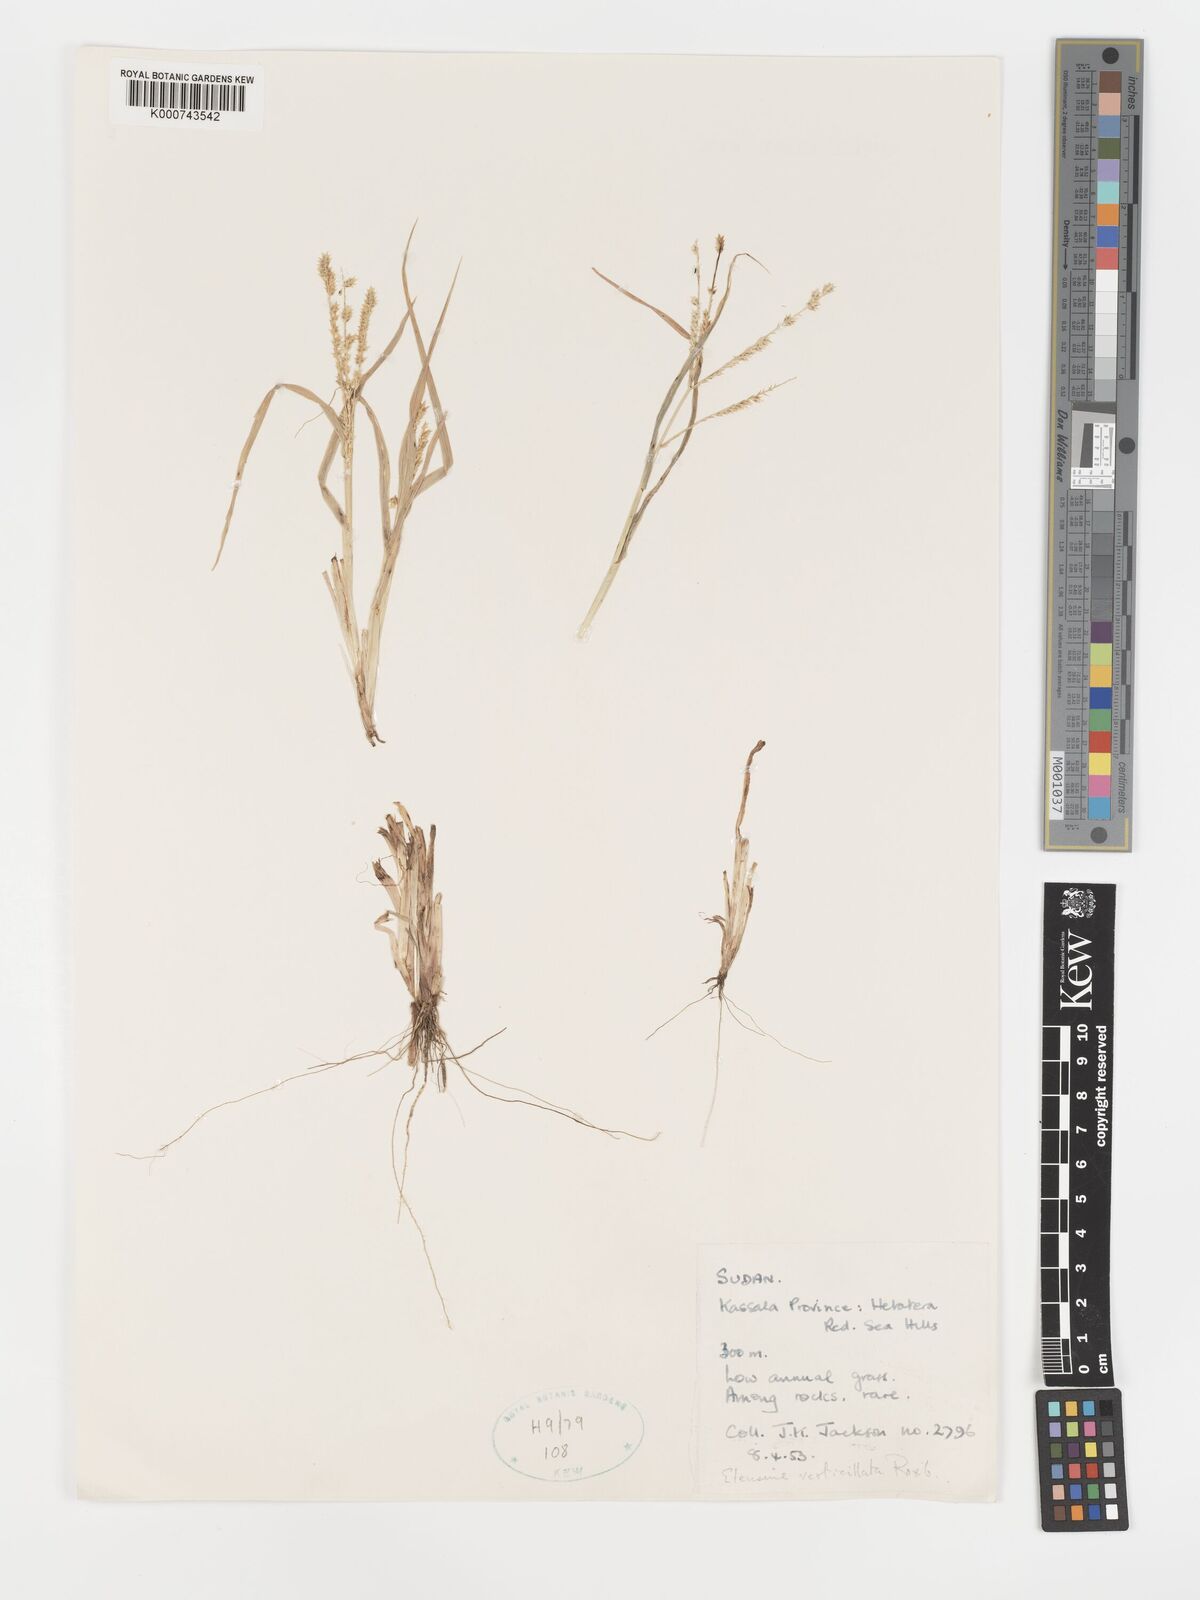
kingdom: Plantae
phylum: Tracheophyta
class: Liliopsida
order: Poales
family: Poaceae
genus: Acrachne
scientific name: Acrachne racemosa
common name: Goosegrass
